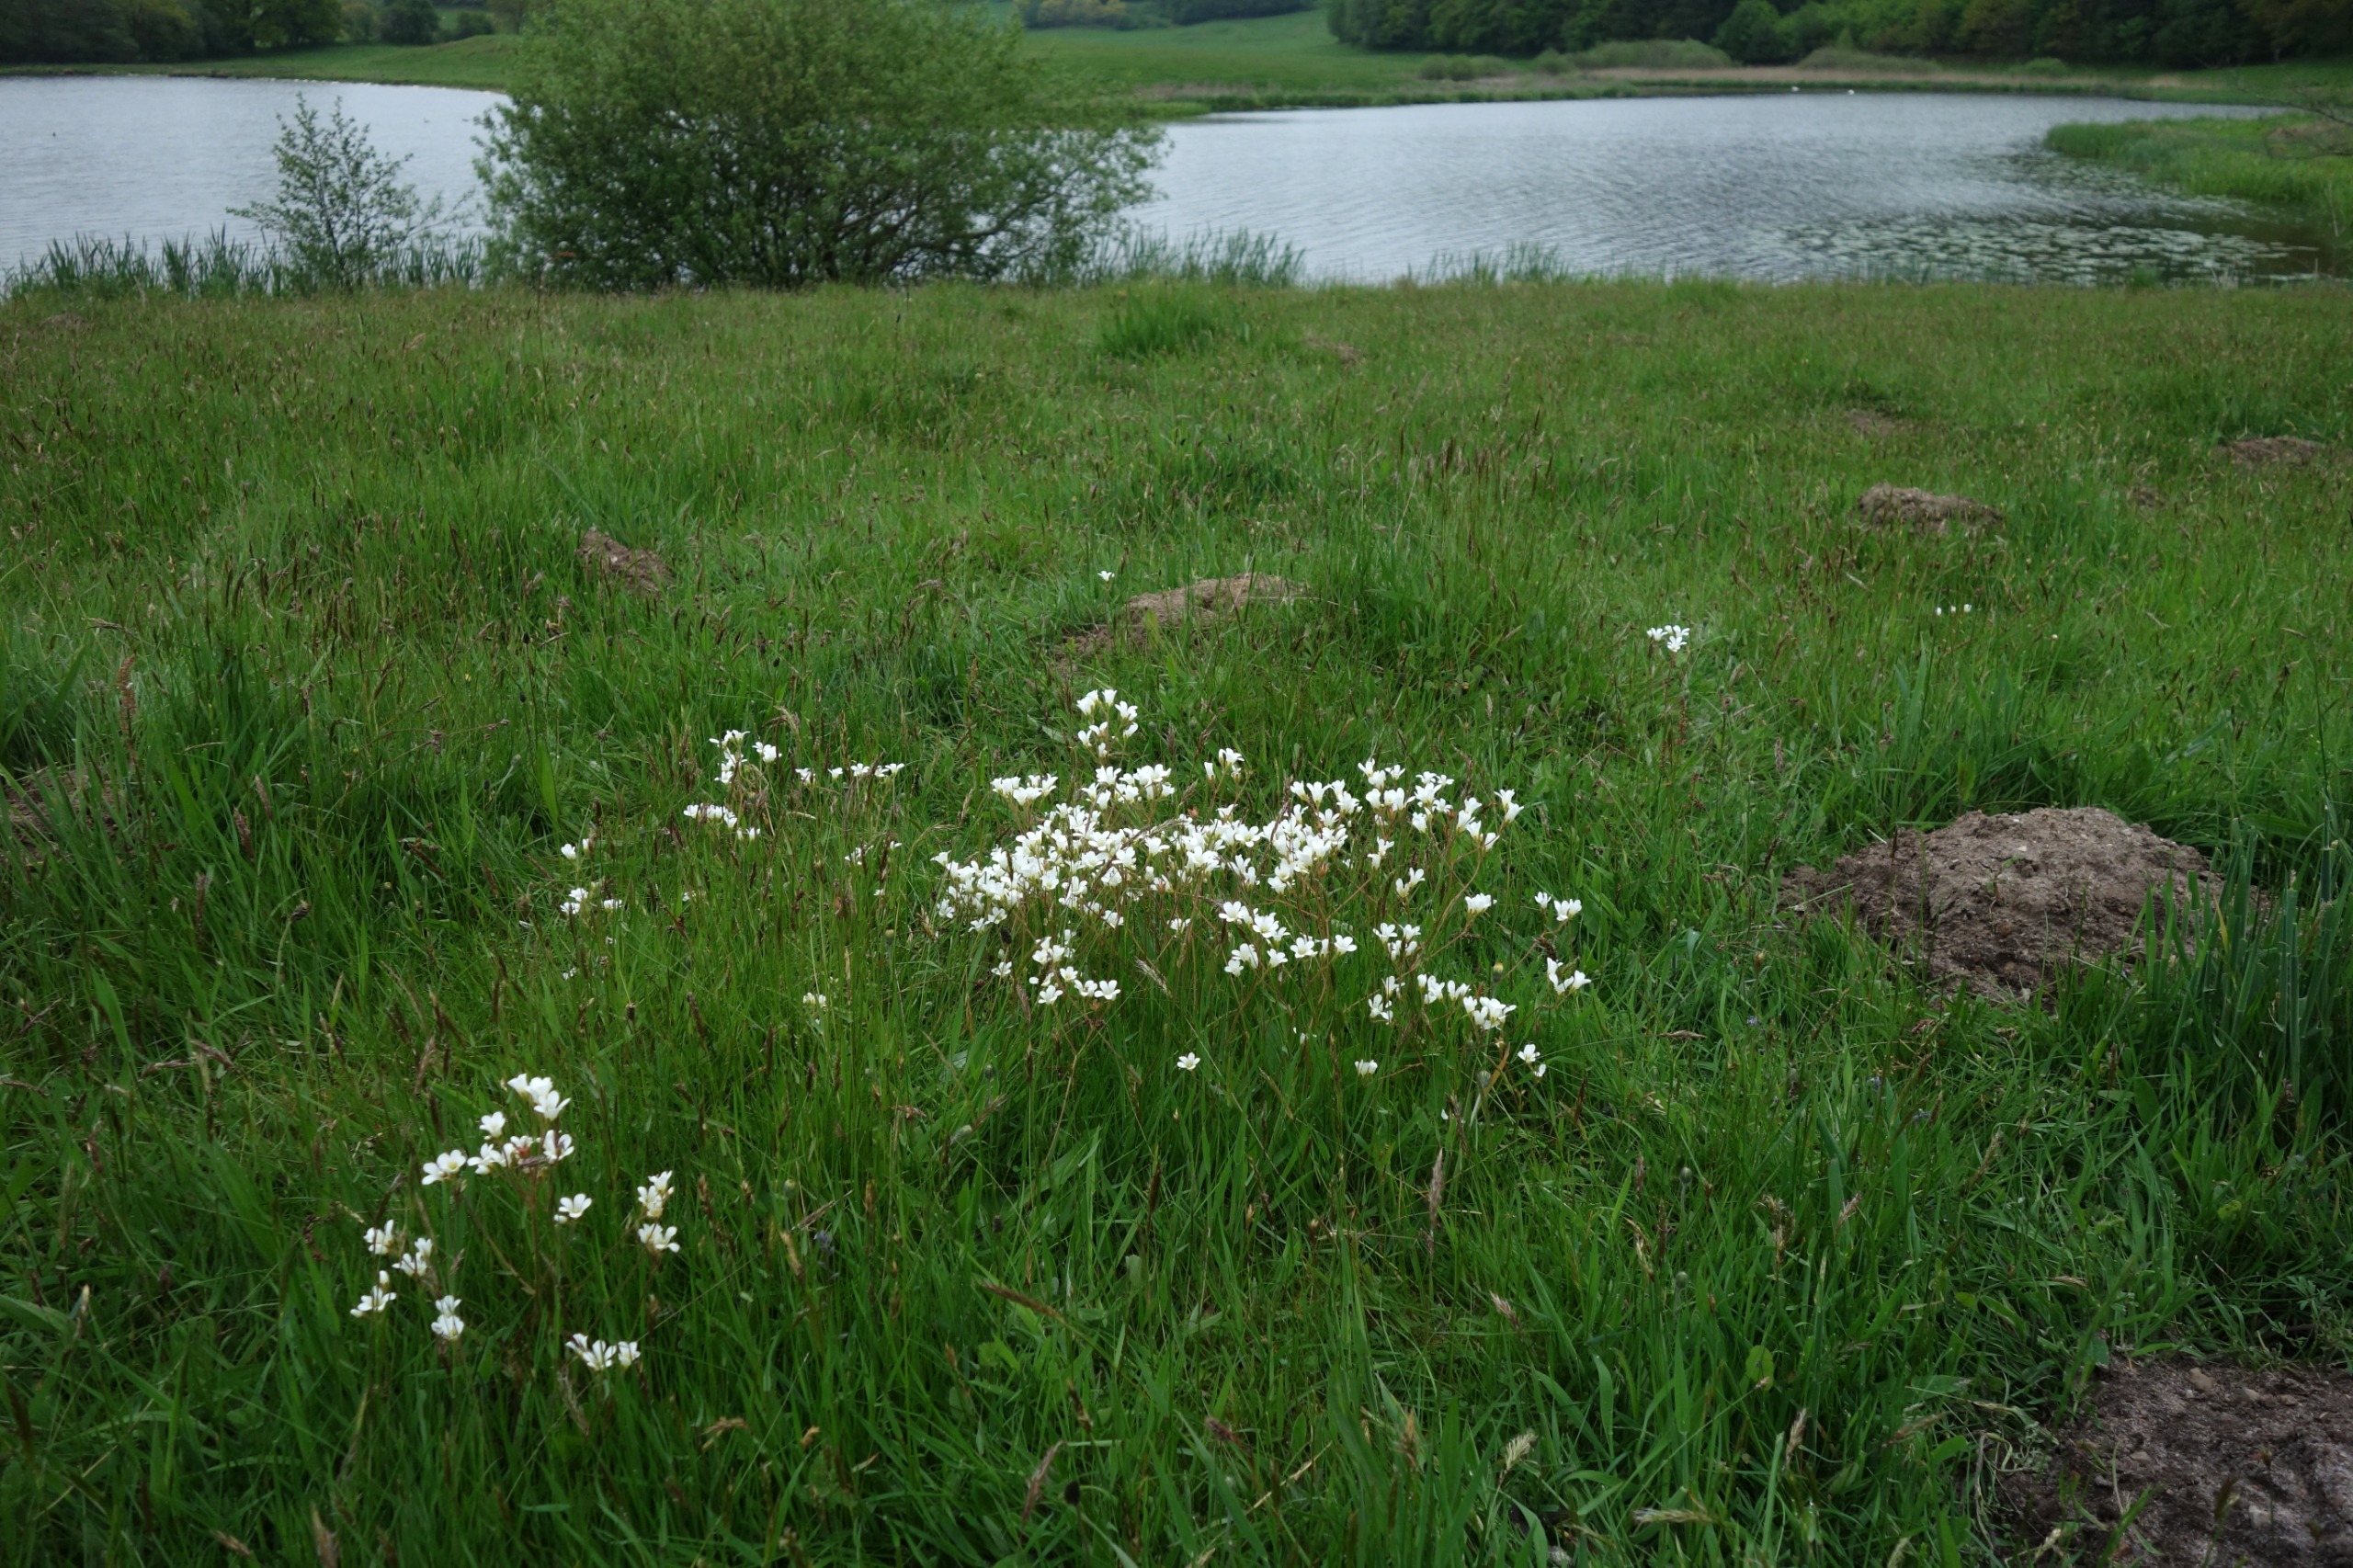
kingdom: Plantae
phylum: Tracheophyta
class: Magnoliopsida
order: Saxifragales
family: Saxifragaceae
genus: Saxifraga
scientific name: Saxifraga granulata
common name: Kornet stenbræk
